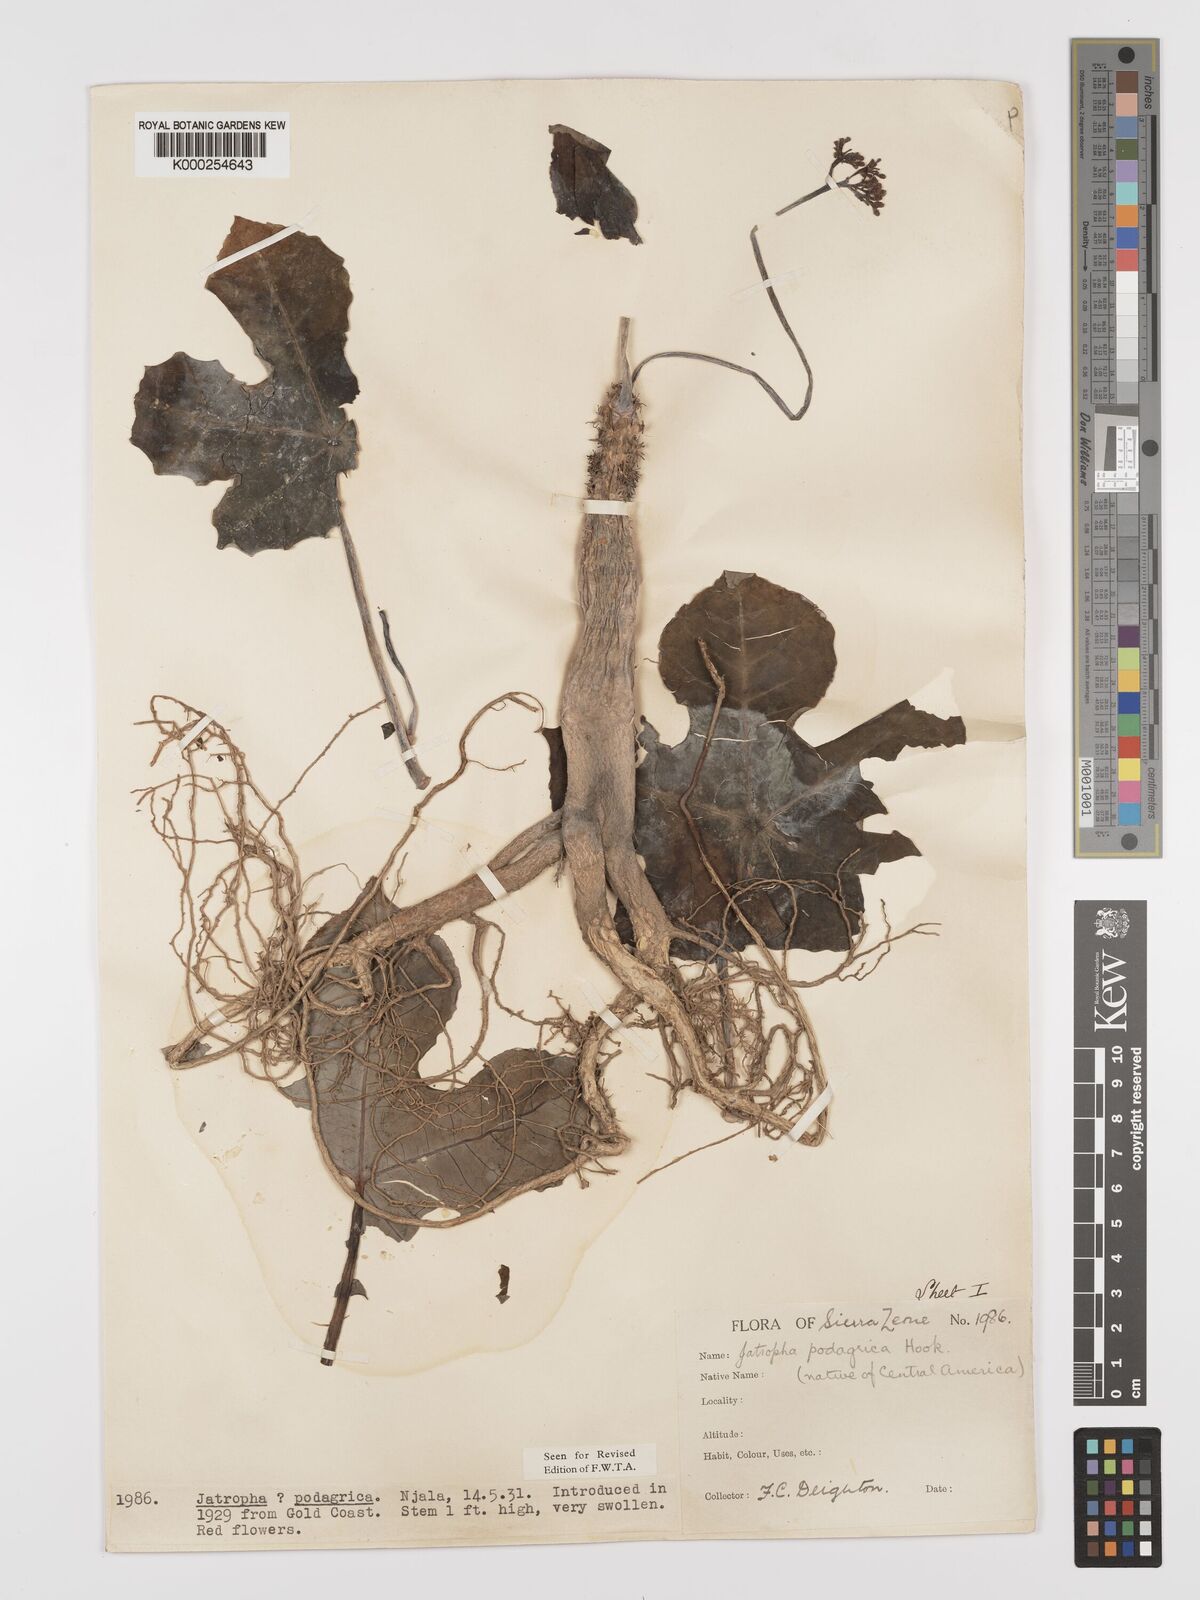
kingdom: Plantae
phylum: Tracheophyta
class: Magnoliopsida
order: Malpighiales
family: Euphorbiaceae
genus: Jatropha
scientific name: Jatropha
